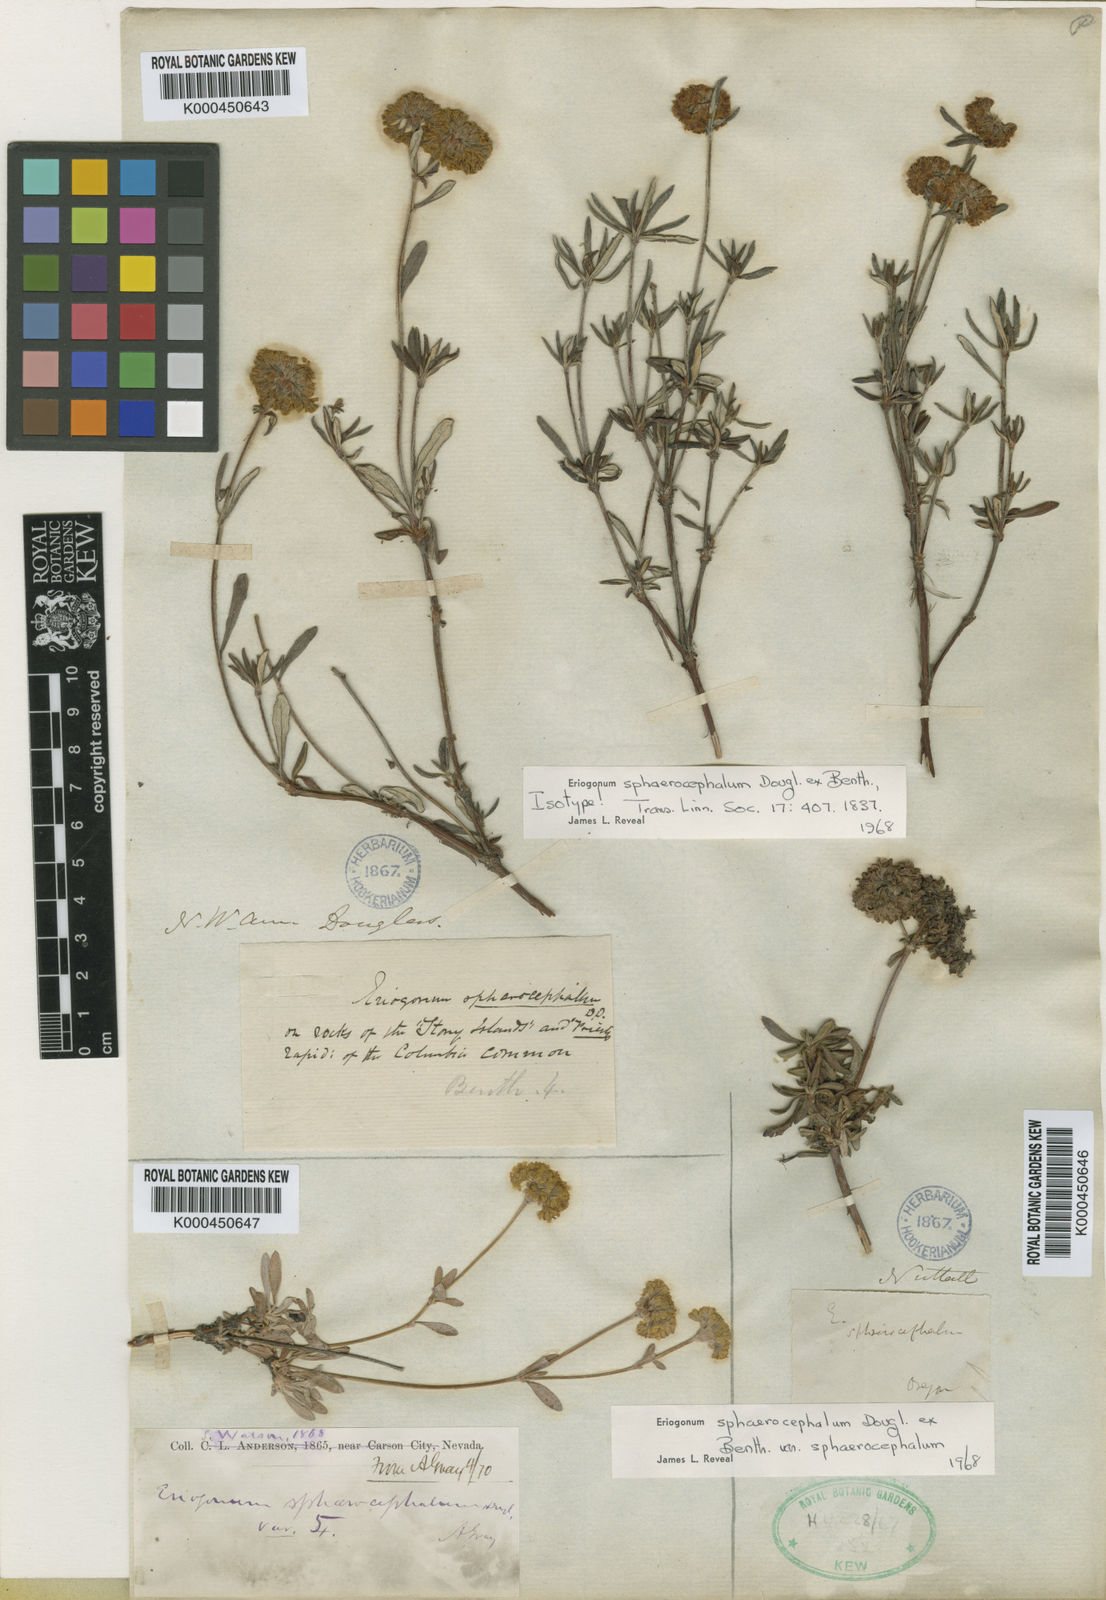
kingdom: Plantae
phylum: Tracheophyta
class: Magnoliopsida
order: Caryophyllales
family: Polygonaceae
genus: Eriogonum
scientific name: Eriogonum sphaerocephalum
